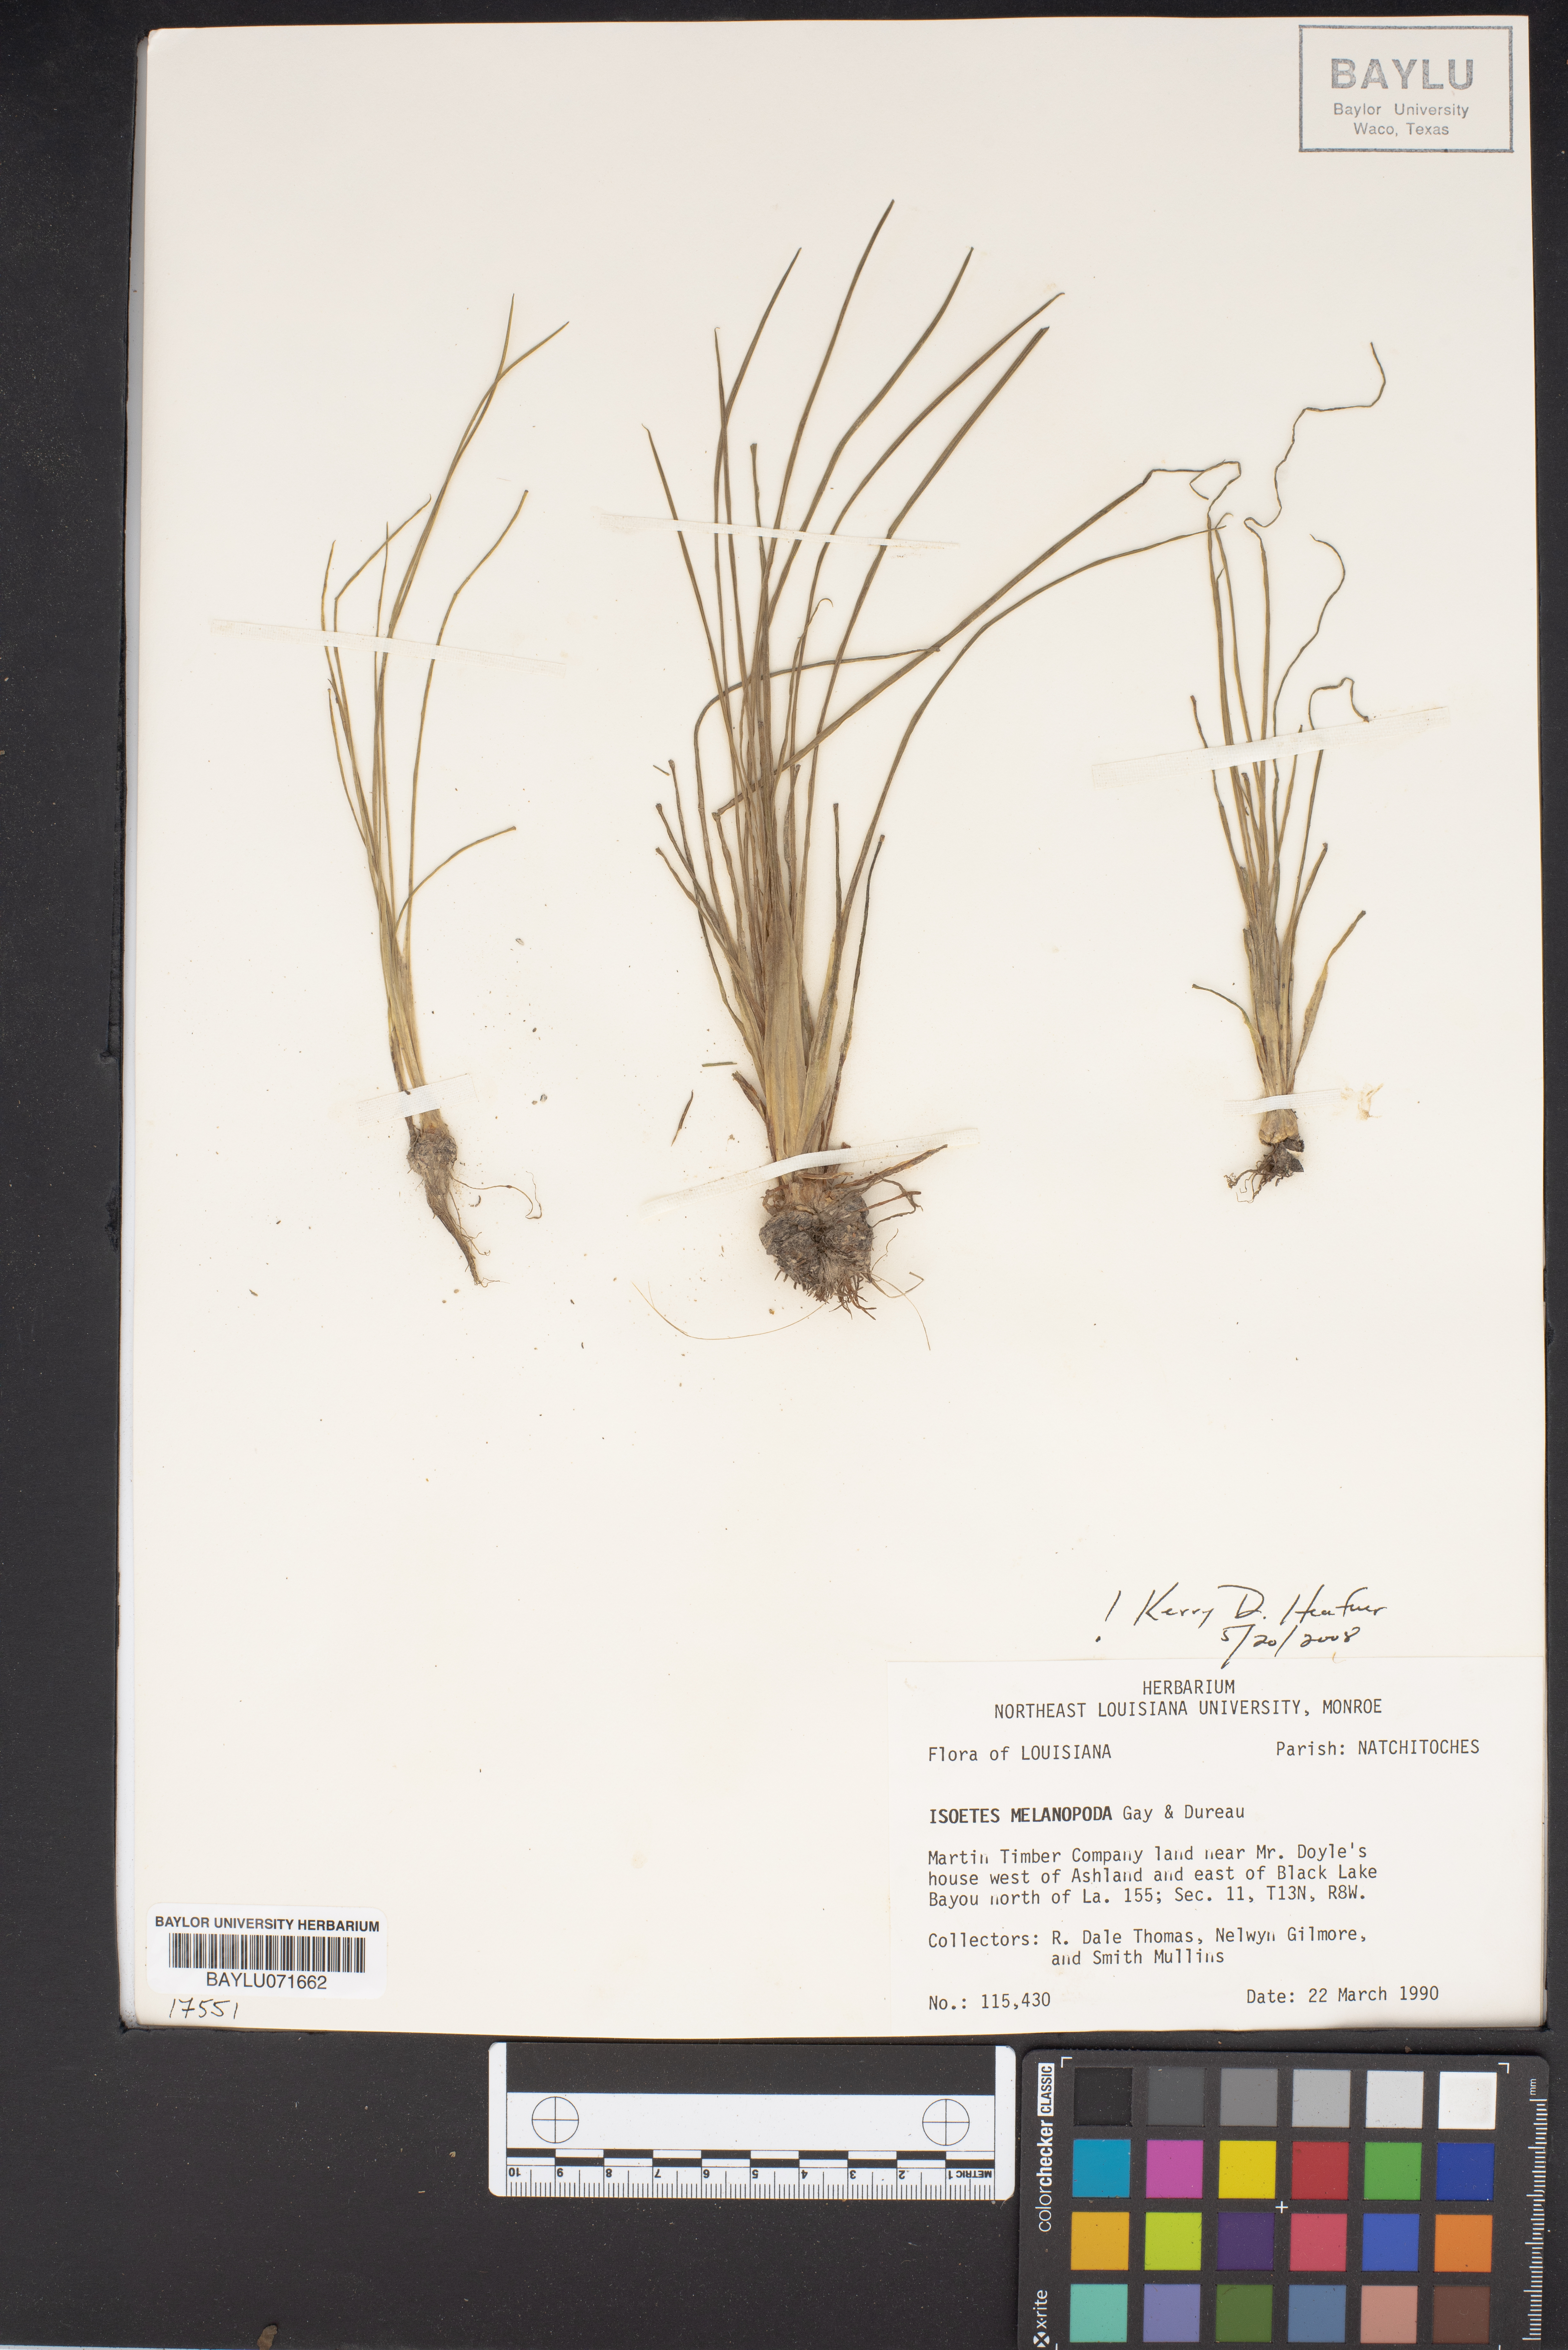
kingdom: Plantae
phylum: Tracheophyta
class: Lycopodiopsida
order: Isoetales
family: Isoetaceae
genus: Isoetes
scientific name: Isoetes melanopoda
